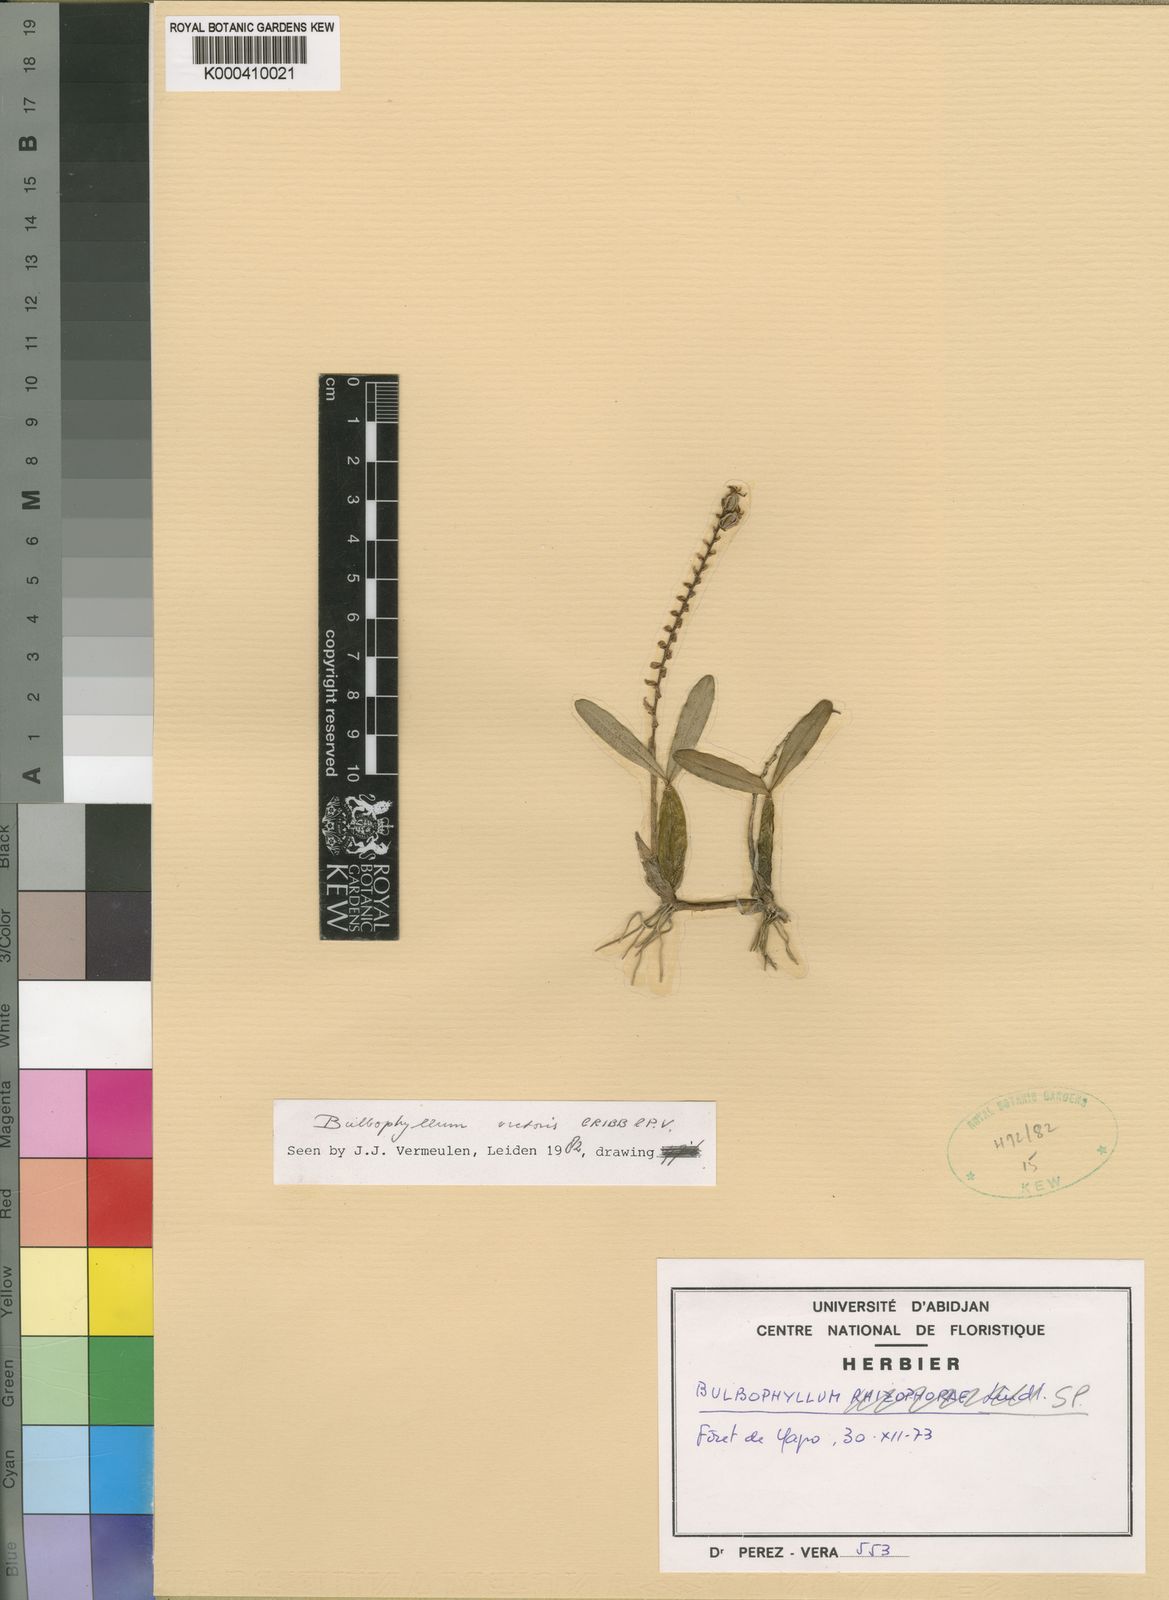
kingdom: Plantae
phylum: Tracheophyta
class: Liliopsida
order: Asparagales
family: Orchidaceae
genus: Bulbophyllum
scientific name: Bulbophyllum resupinatum
